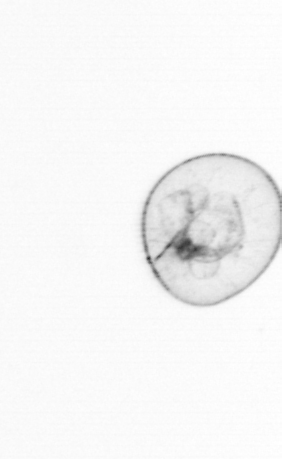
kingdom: Chromista
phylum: Myzozoa
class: Dinophyceae
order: Noctilucales
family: Noctilucaceae
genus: Noctiluca
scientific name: Noctiluca scintillans
